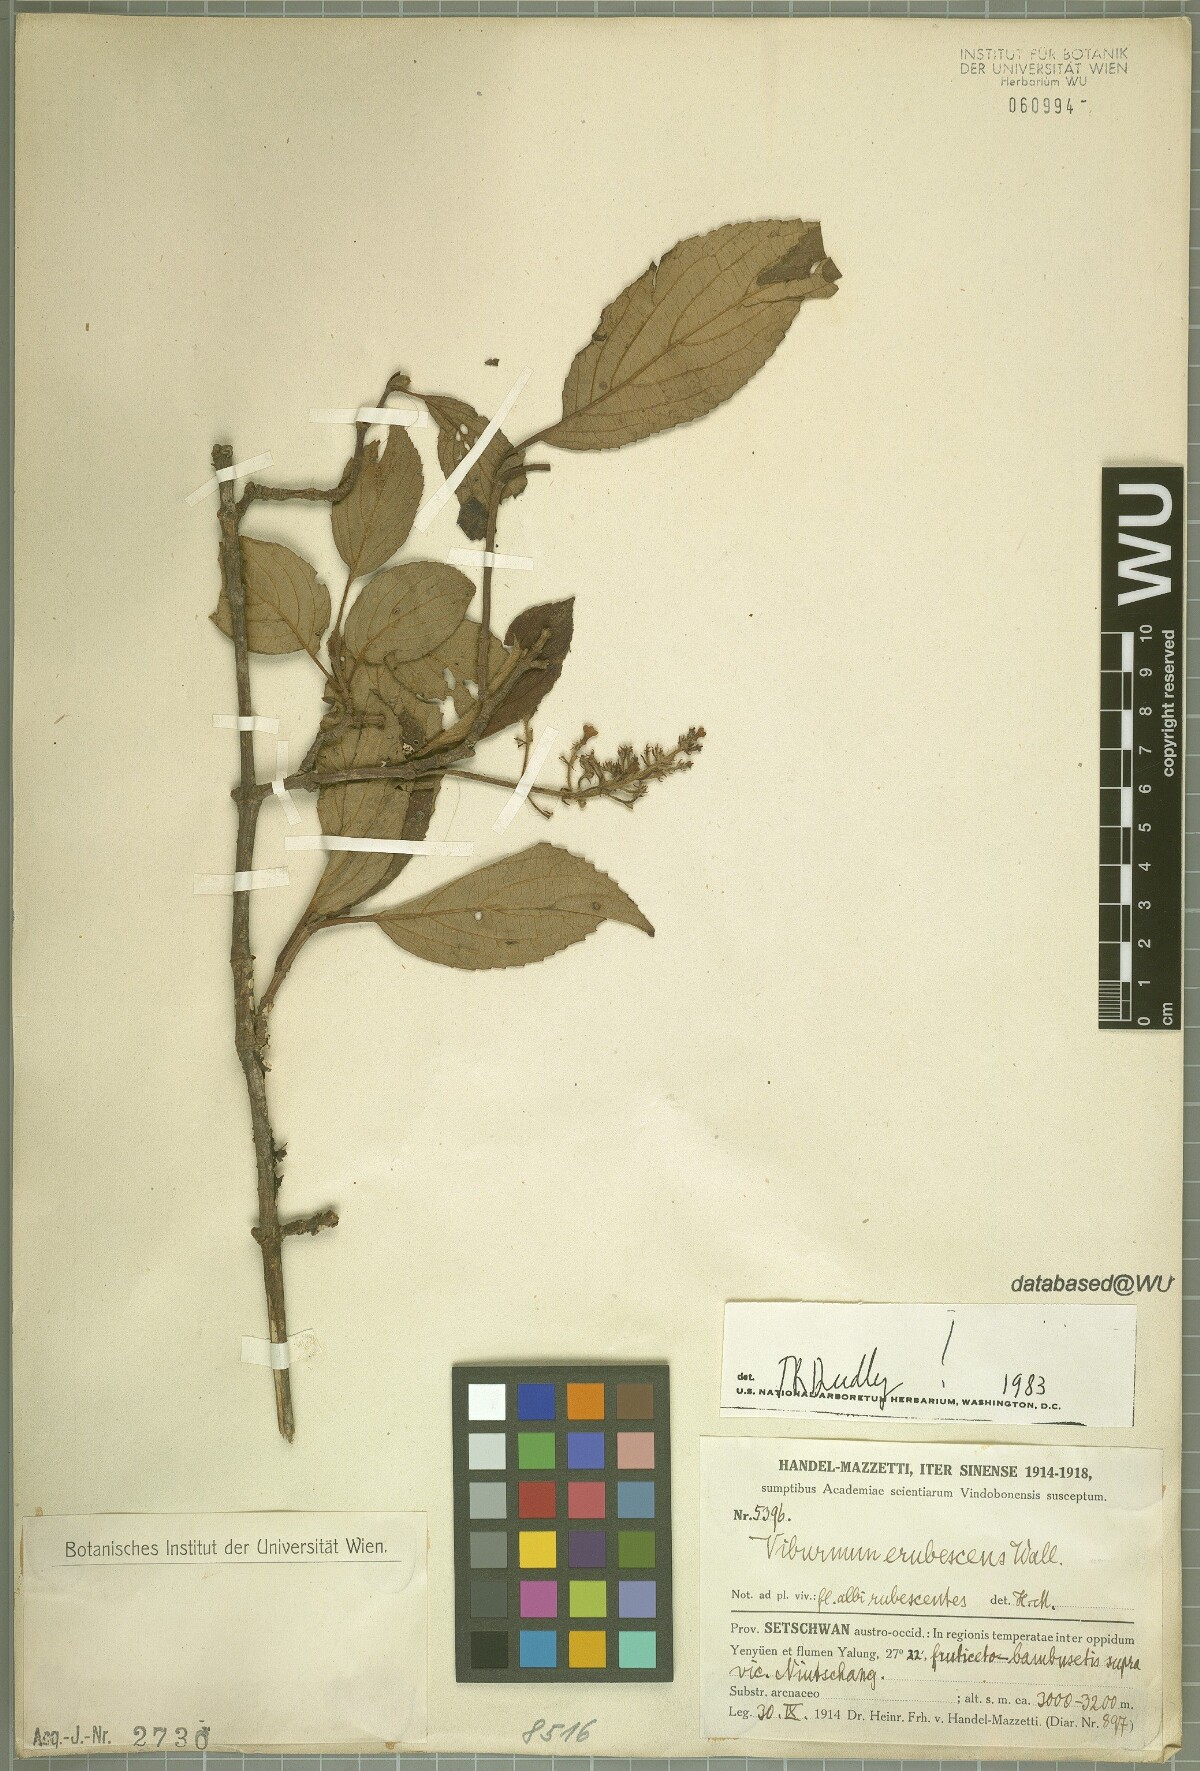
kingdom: Plantae
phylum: Tracheophyta
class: Magnoliopsida
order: Dipsacales
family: Viburnaceae
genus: Viburnum
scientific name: Viburnum erubescens
